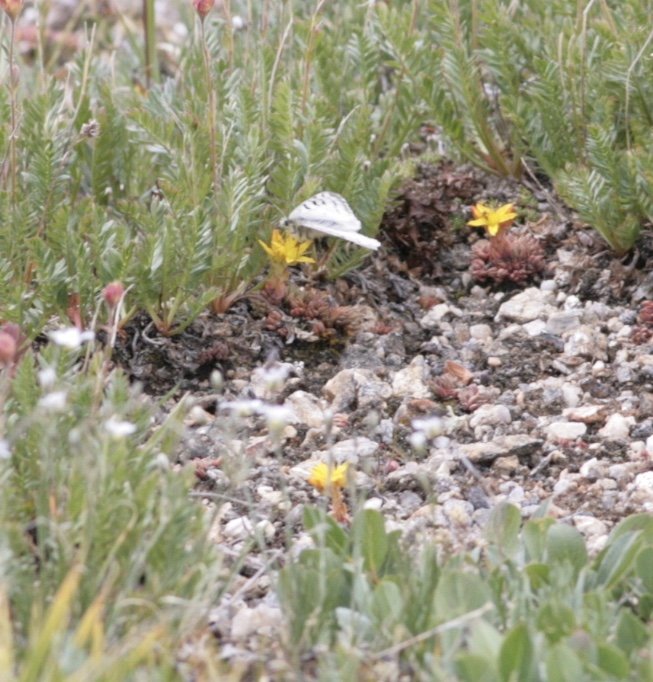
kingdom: Animalia
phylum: Arthropoda
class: Insecta
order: Lepidoptera
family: Papilionidae
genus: Parnassius
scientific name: Parnassius smintheus
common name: Rocky Mountain Parnassian
